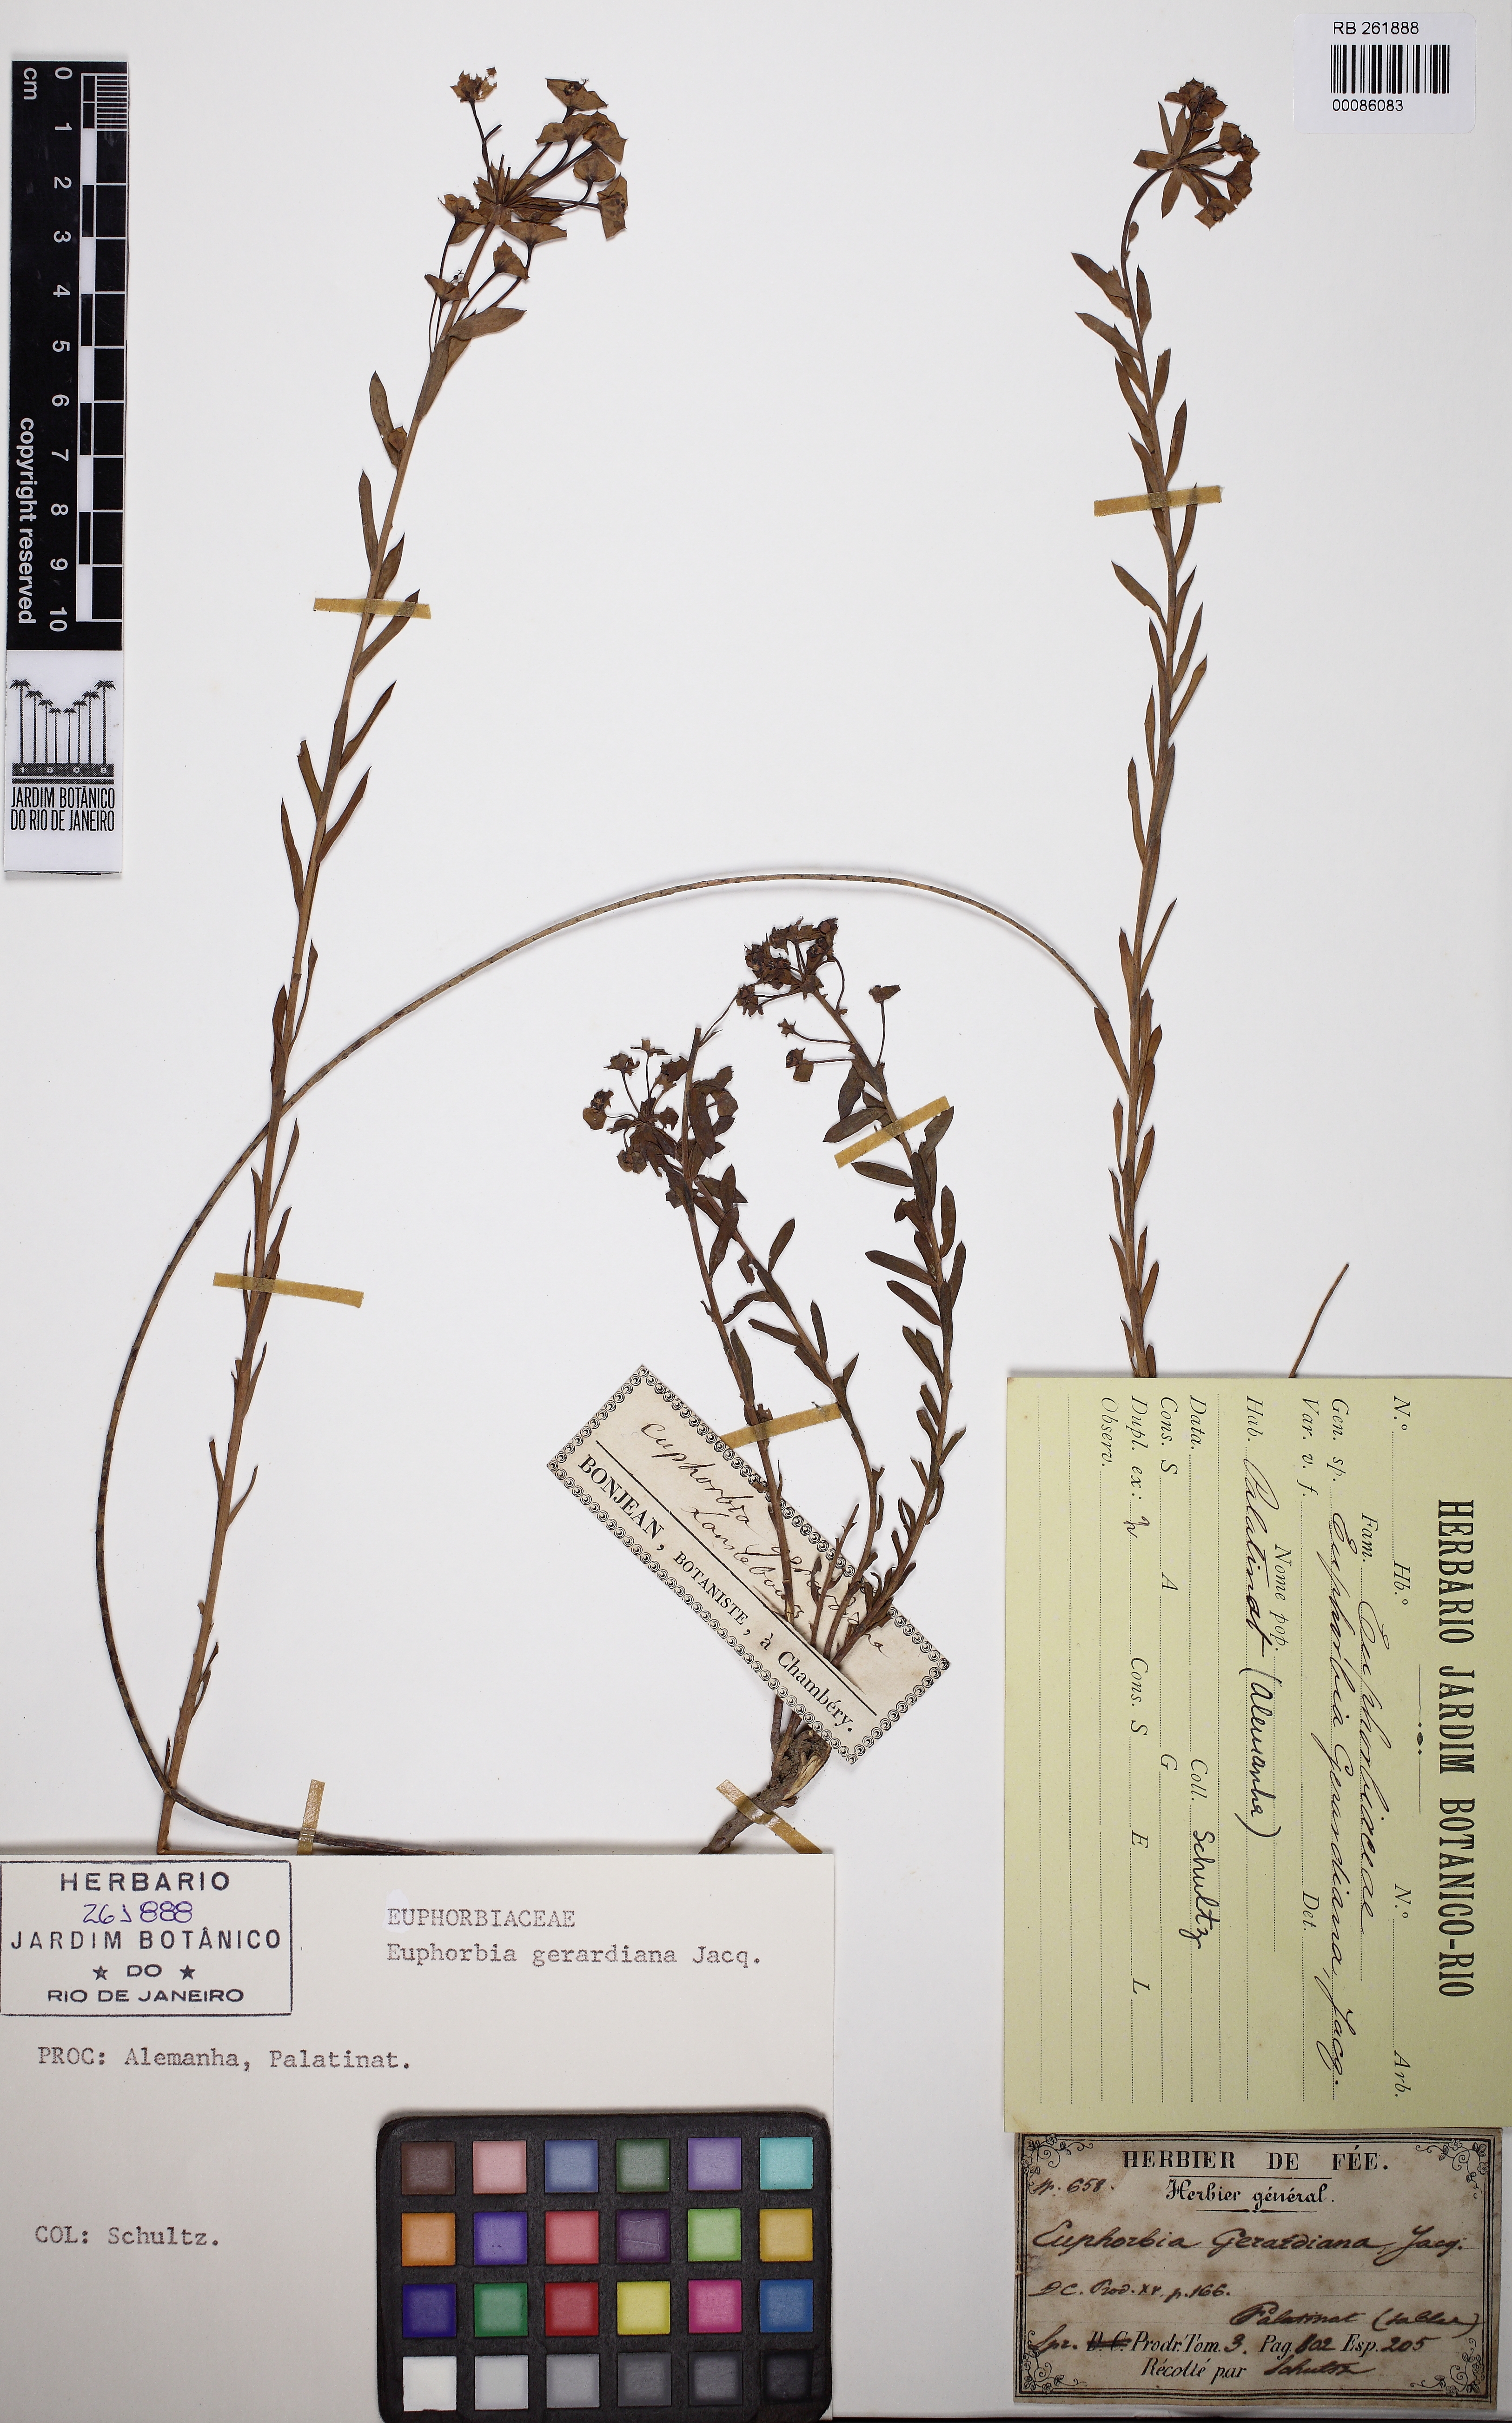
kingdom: Plantae
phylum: Tracheophyta
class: Magnoliopsida
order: Malpighiales
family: Euphorbiaceae
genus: Euphorbia
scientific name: Euphorbia seguieriana
